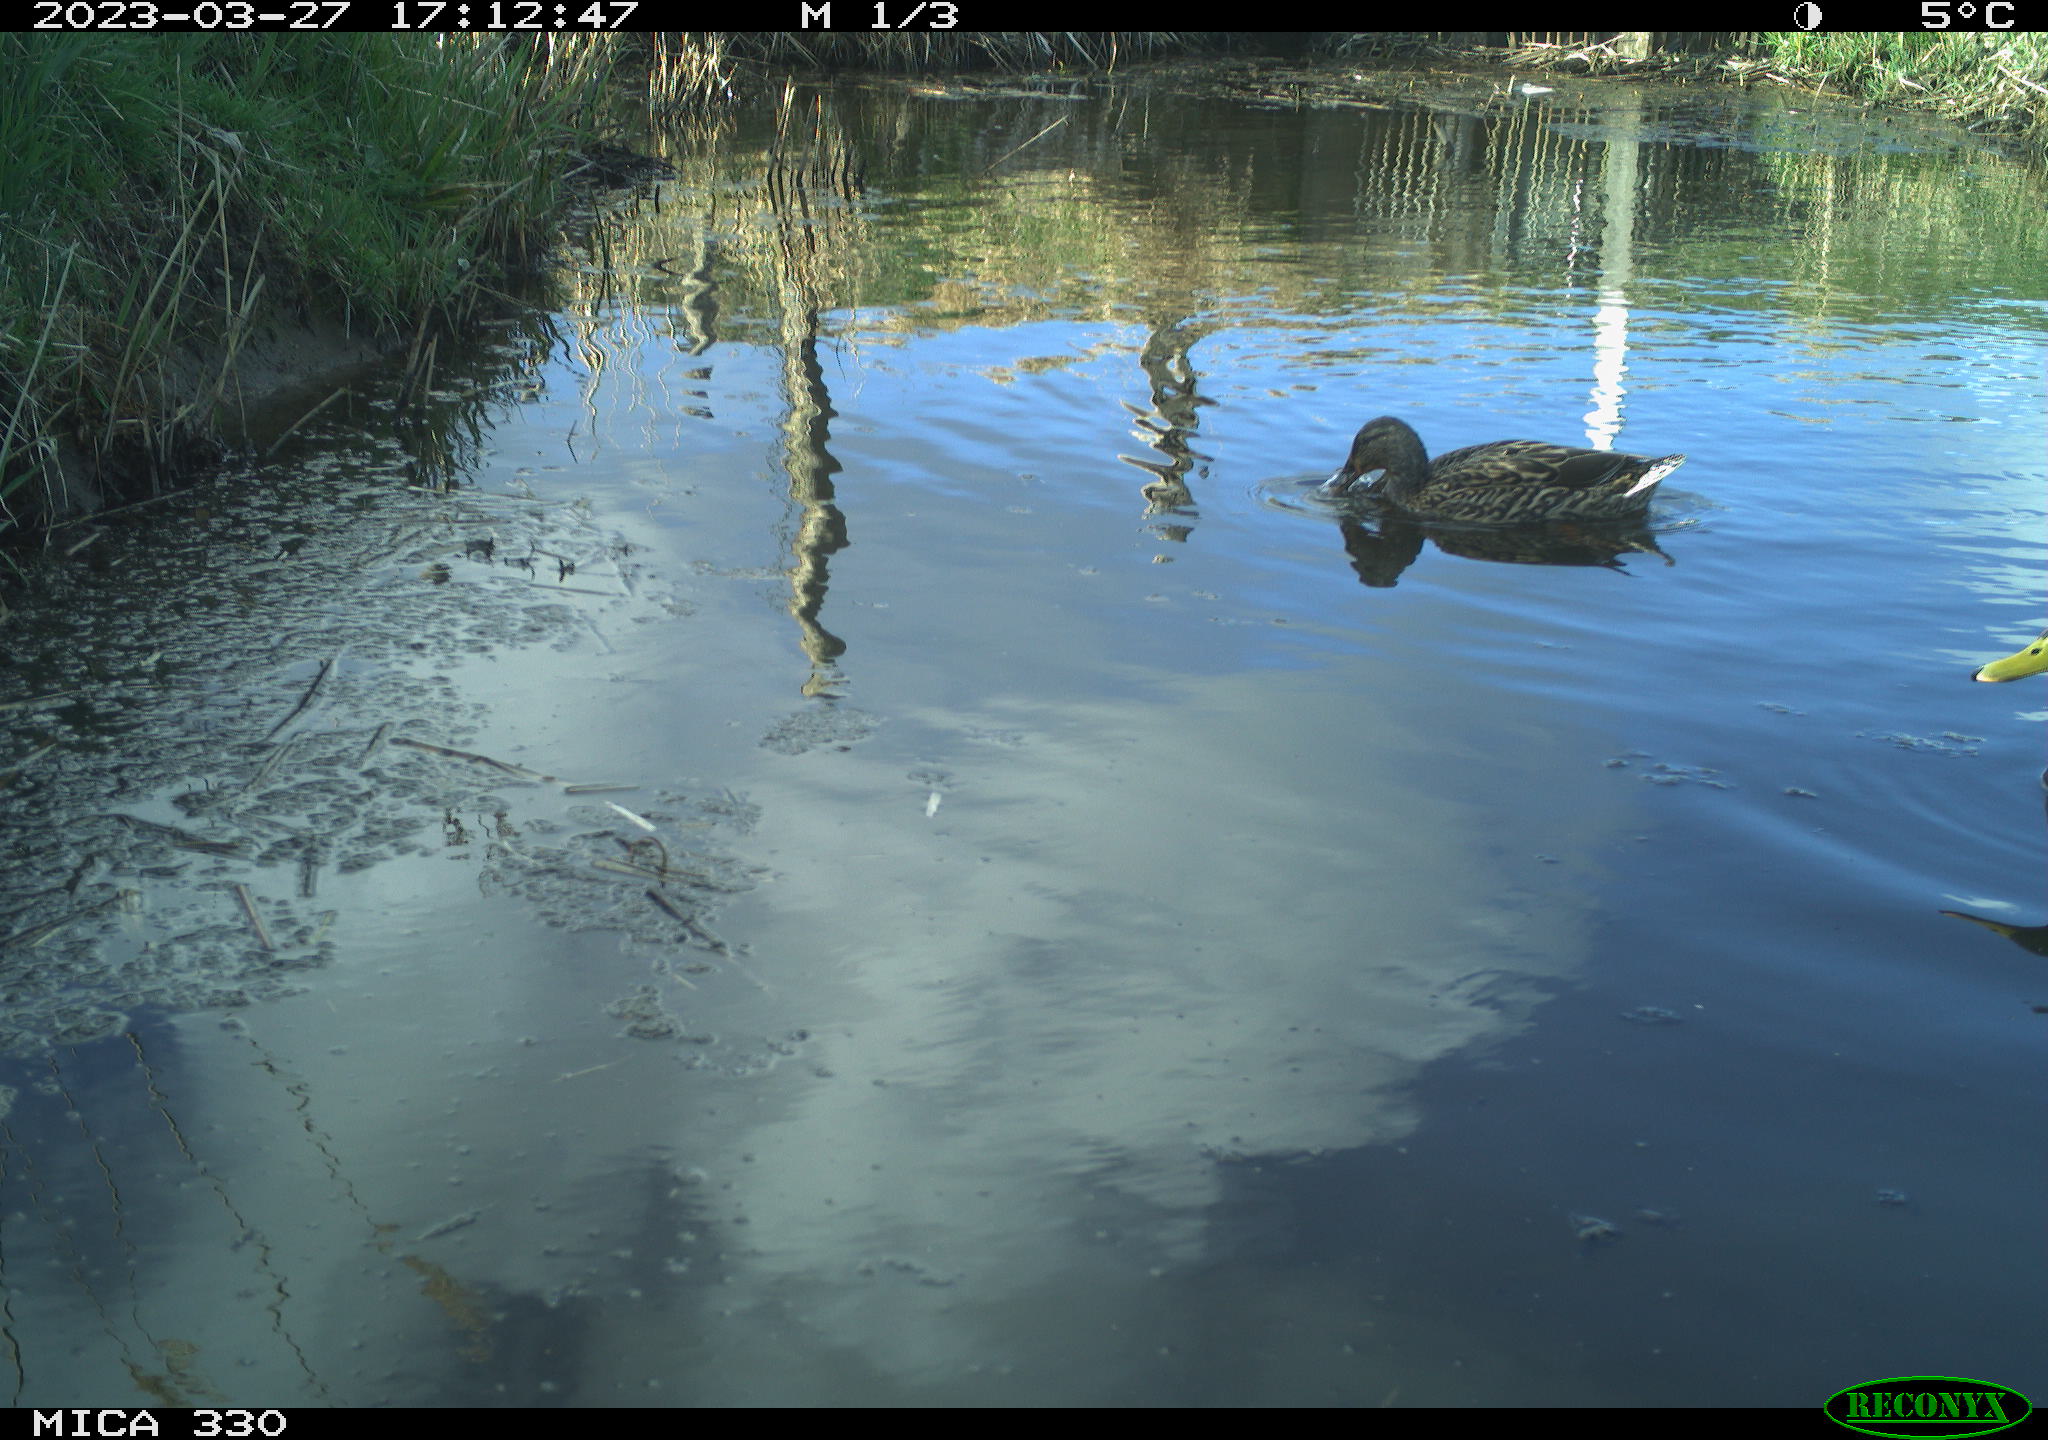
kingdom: Animalia
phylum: Chordata
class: Aves
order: Anseriformes
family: Anatidae
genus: Anas
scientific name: Anas
